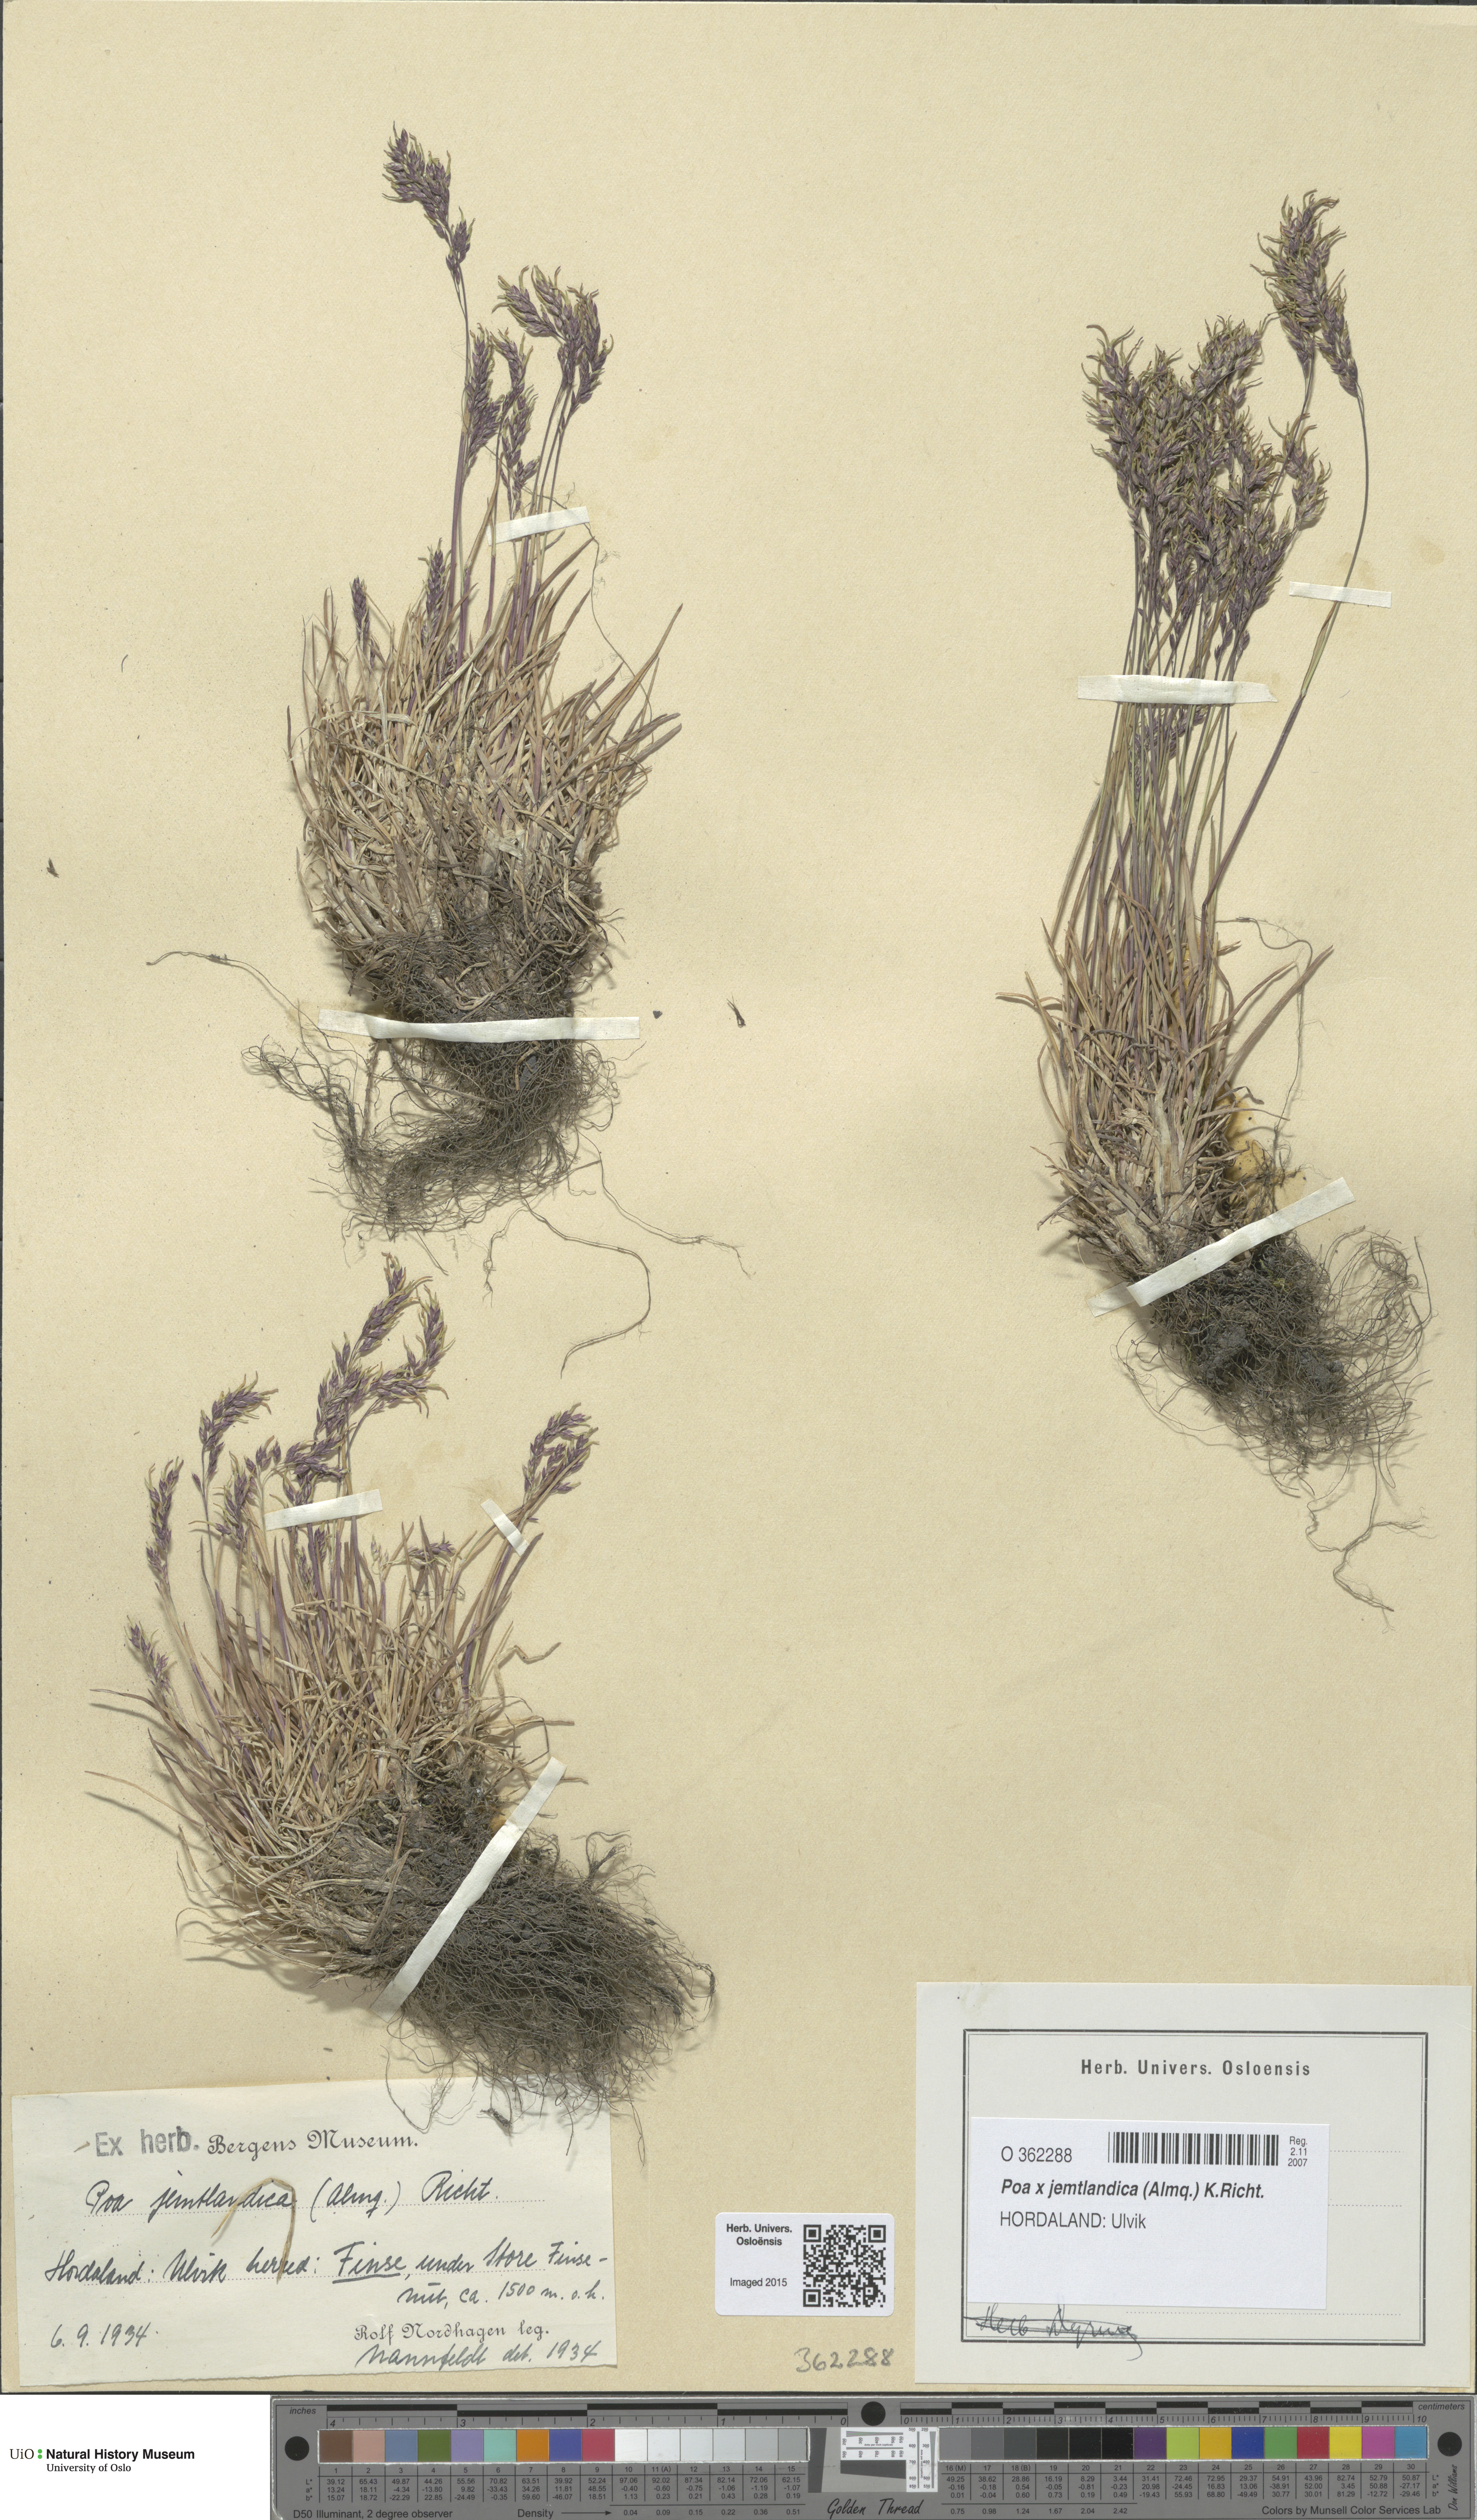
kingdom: Plantae
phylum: Tracheophyta
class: Liliopsida
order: Poales
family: Poaceae
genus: Poa
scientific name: Poa jemtlandica
